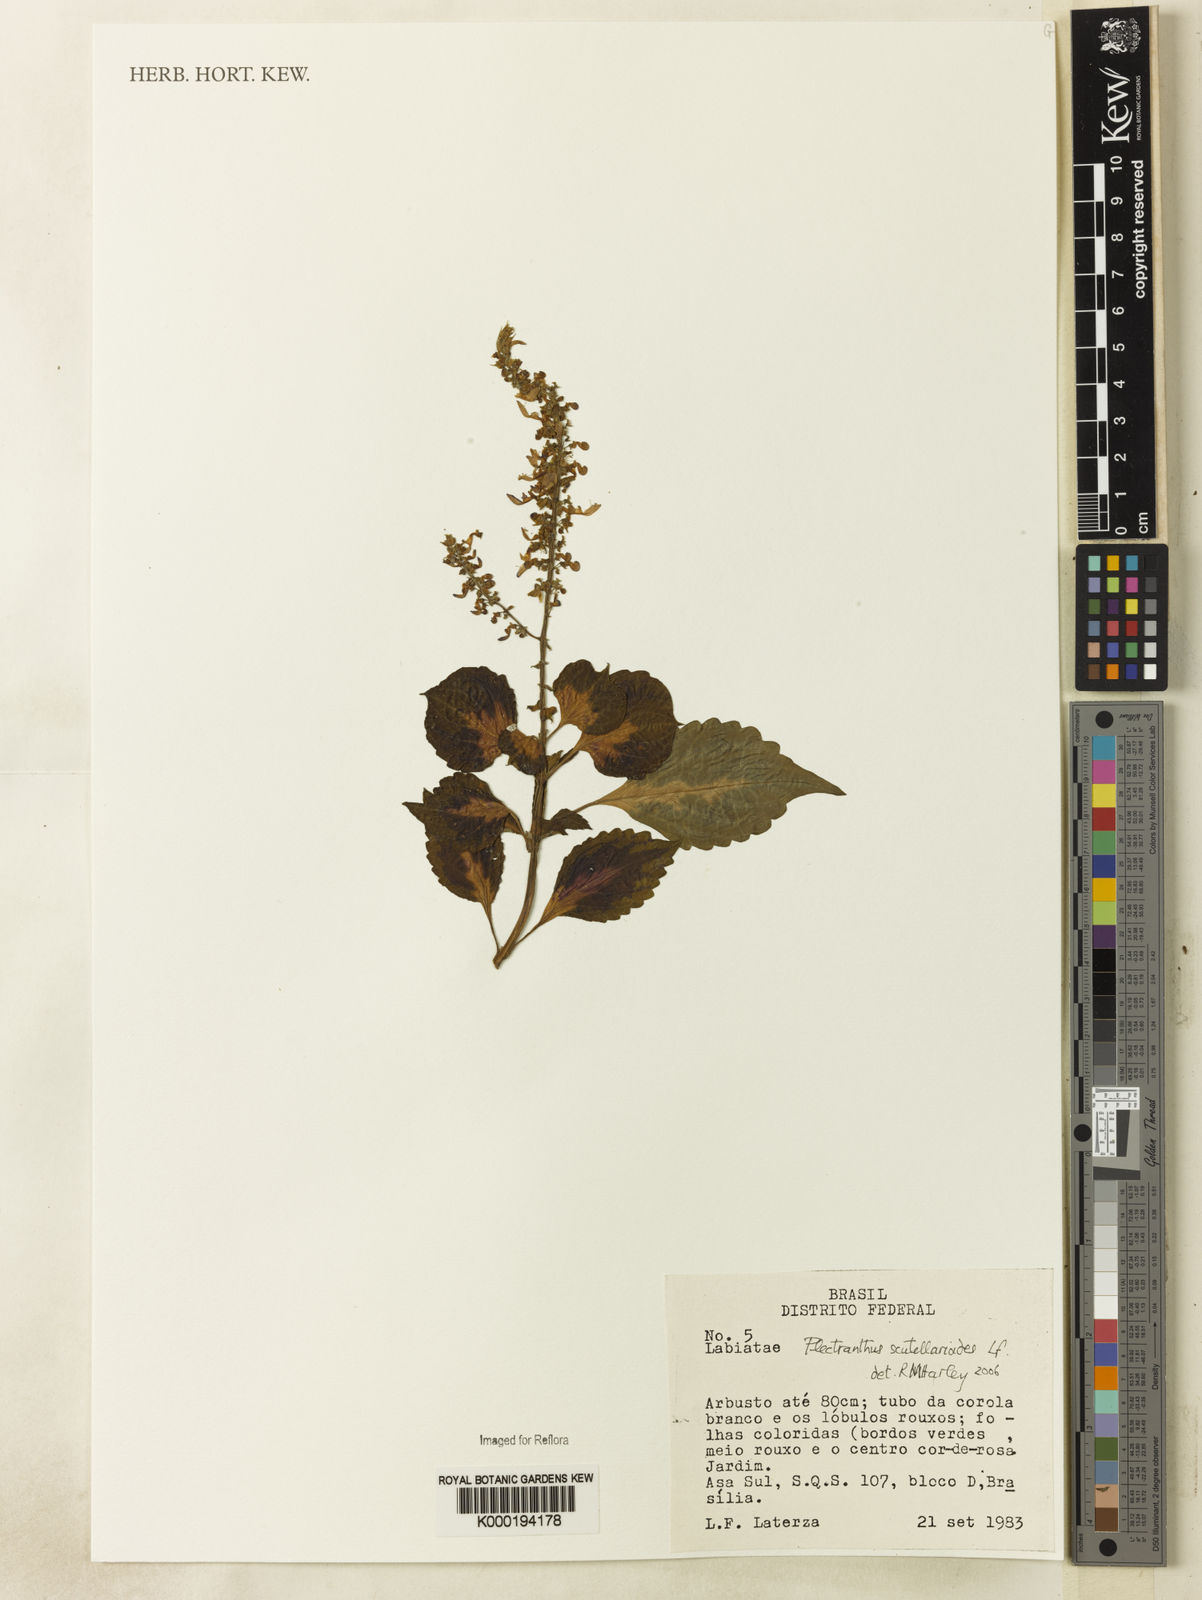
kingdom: Plantae
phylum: Tracheophyta
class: Magnoliopsida
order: Lamiales
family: Lamiaceae
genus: Coleus
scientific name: Coleus scutellarioides
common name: Coleus
